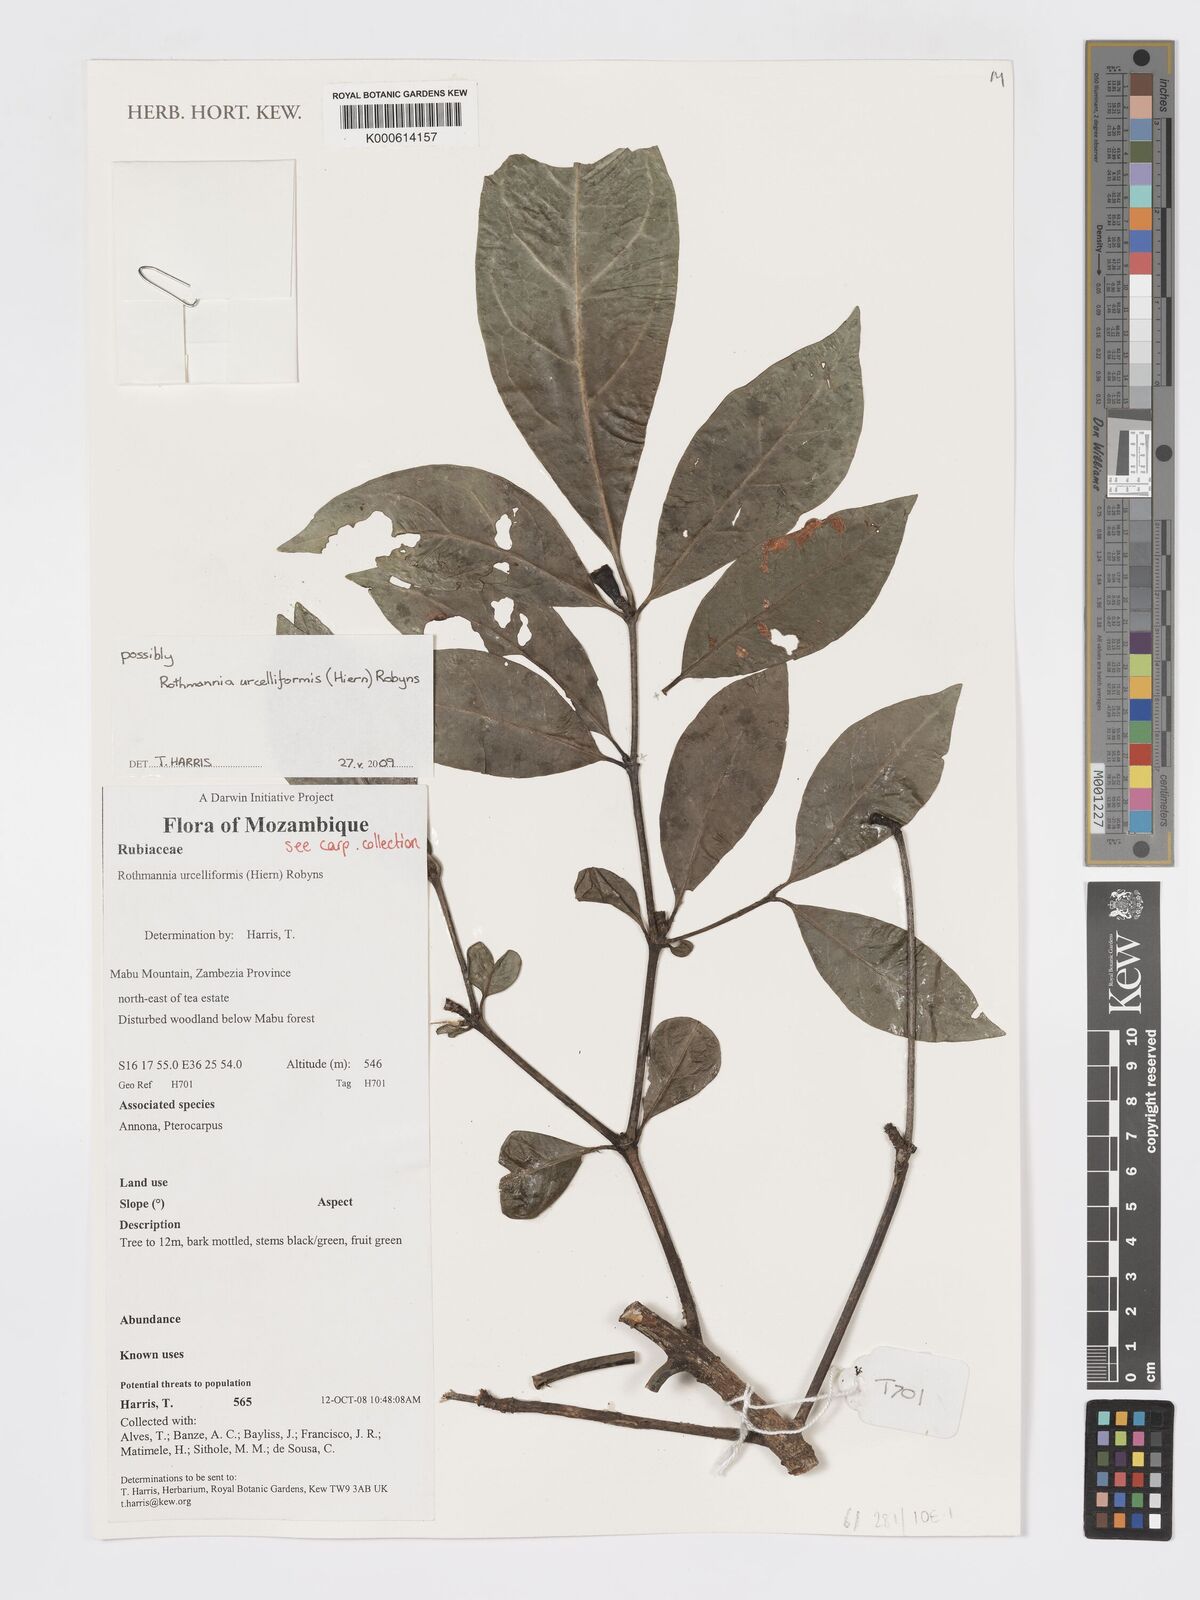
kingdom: Plantae
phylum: Tracheophyta
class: Magnoliopsida
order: Gentianales
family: Rubiaceae
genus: Rothmannia
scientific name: Rothmannia urcelliformis
